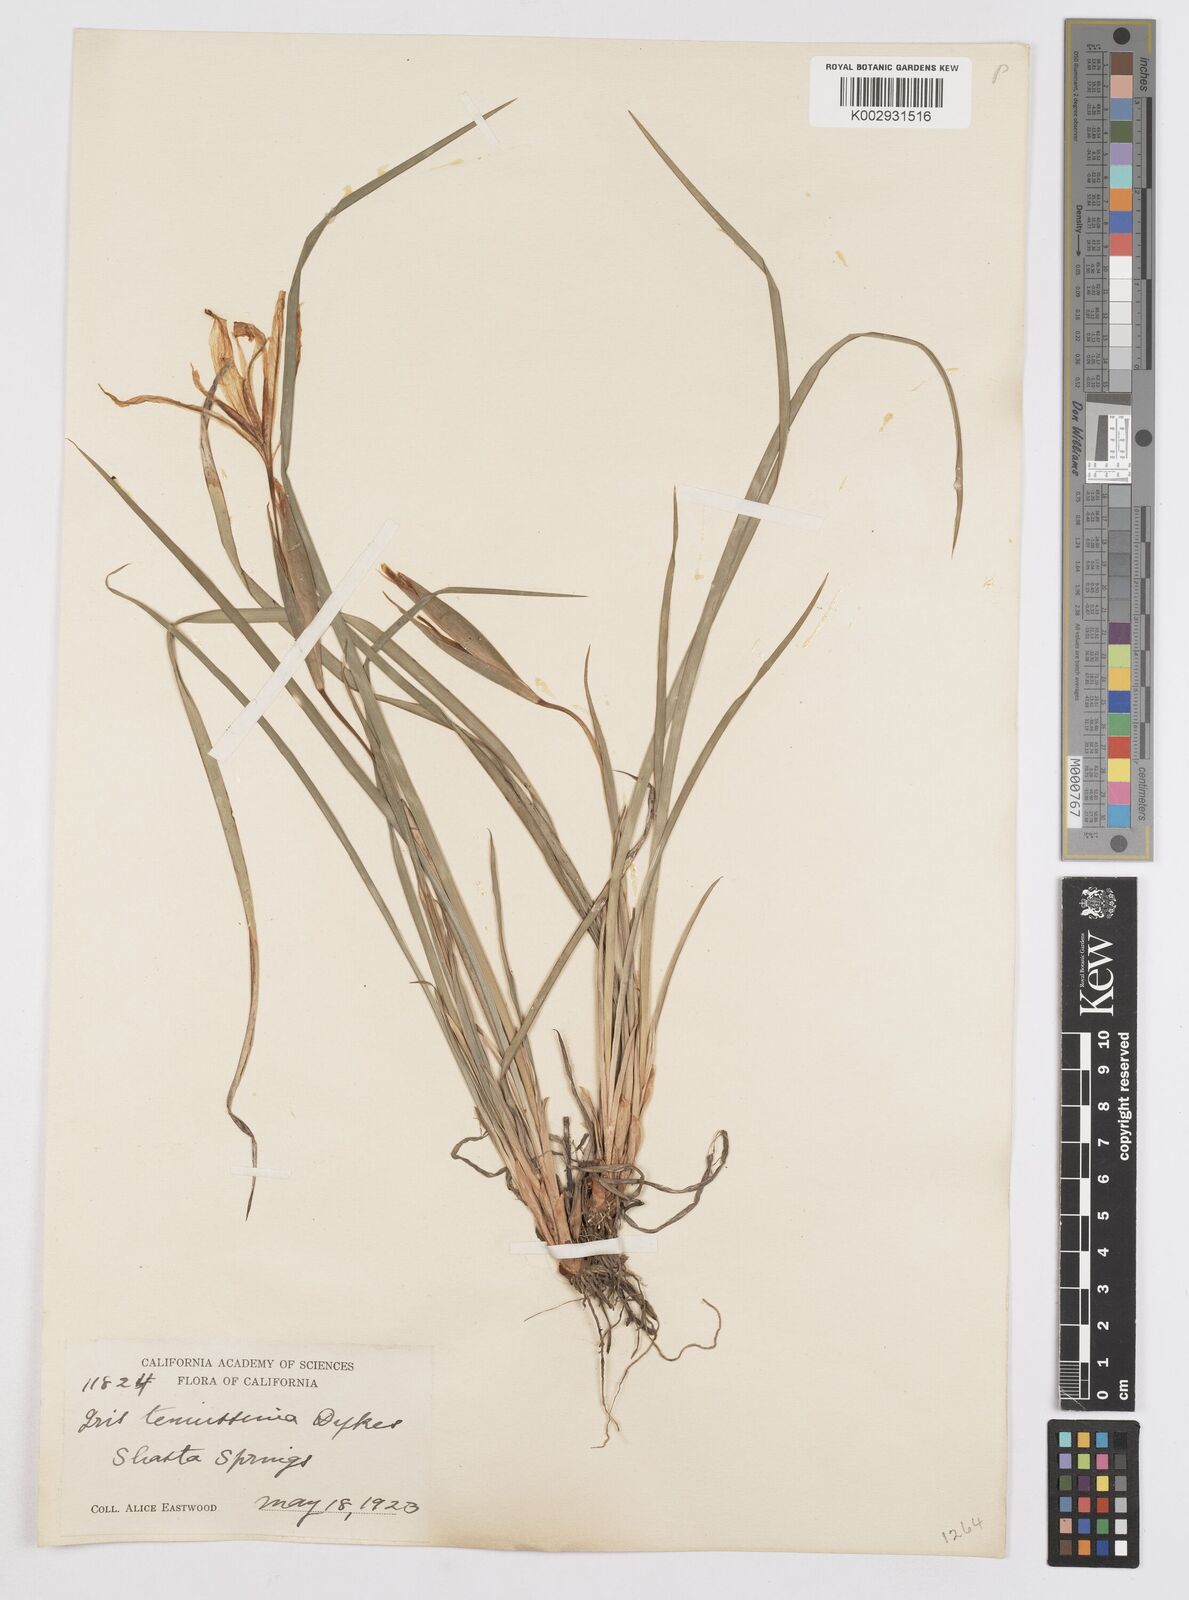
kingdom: Plantae
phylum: Tracheophyta
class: Liliopsida
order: Asparagales
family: Iridaceae
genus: Iris
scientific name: Iris tenuissima
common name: Long-tube iris
